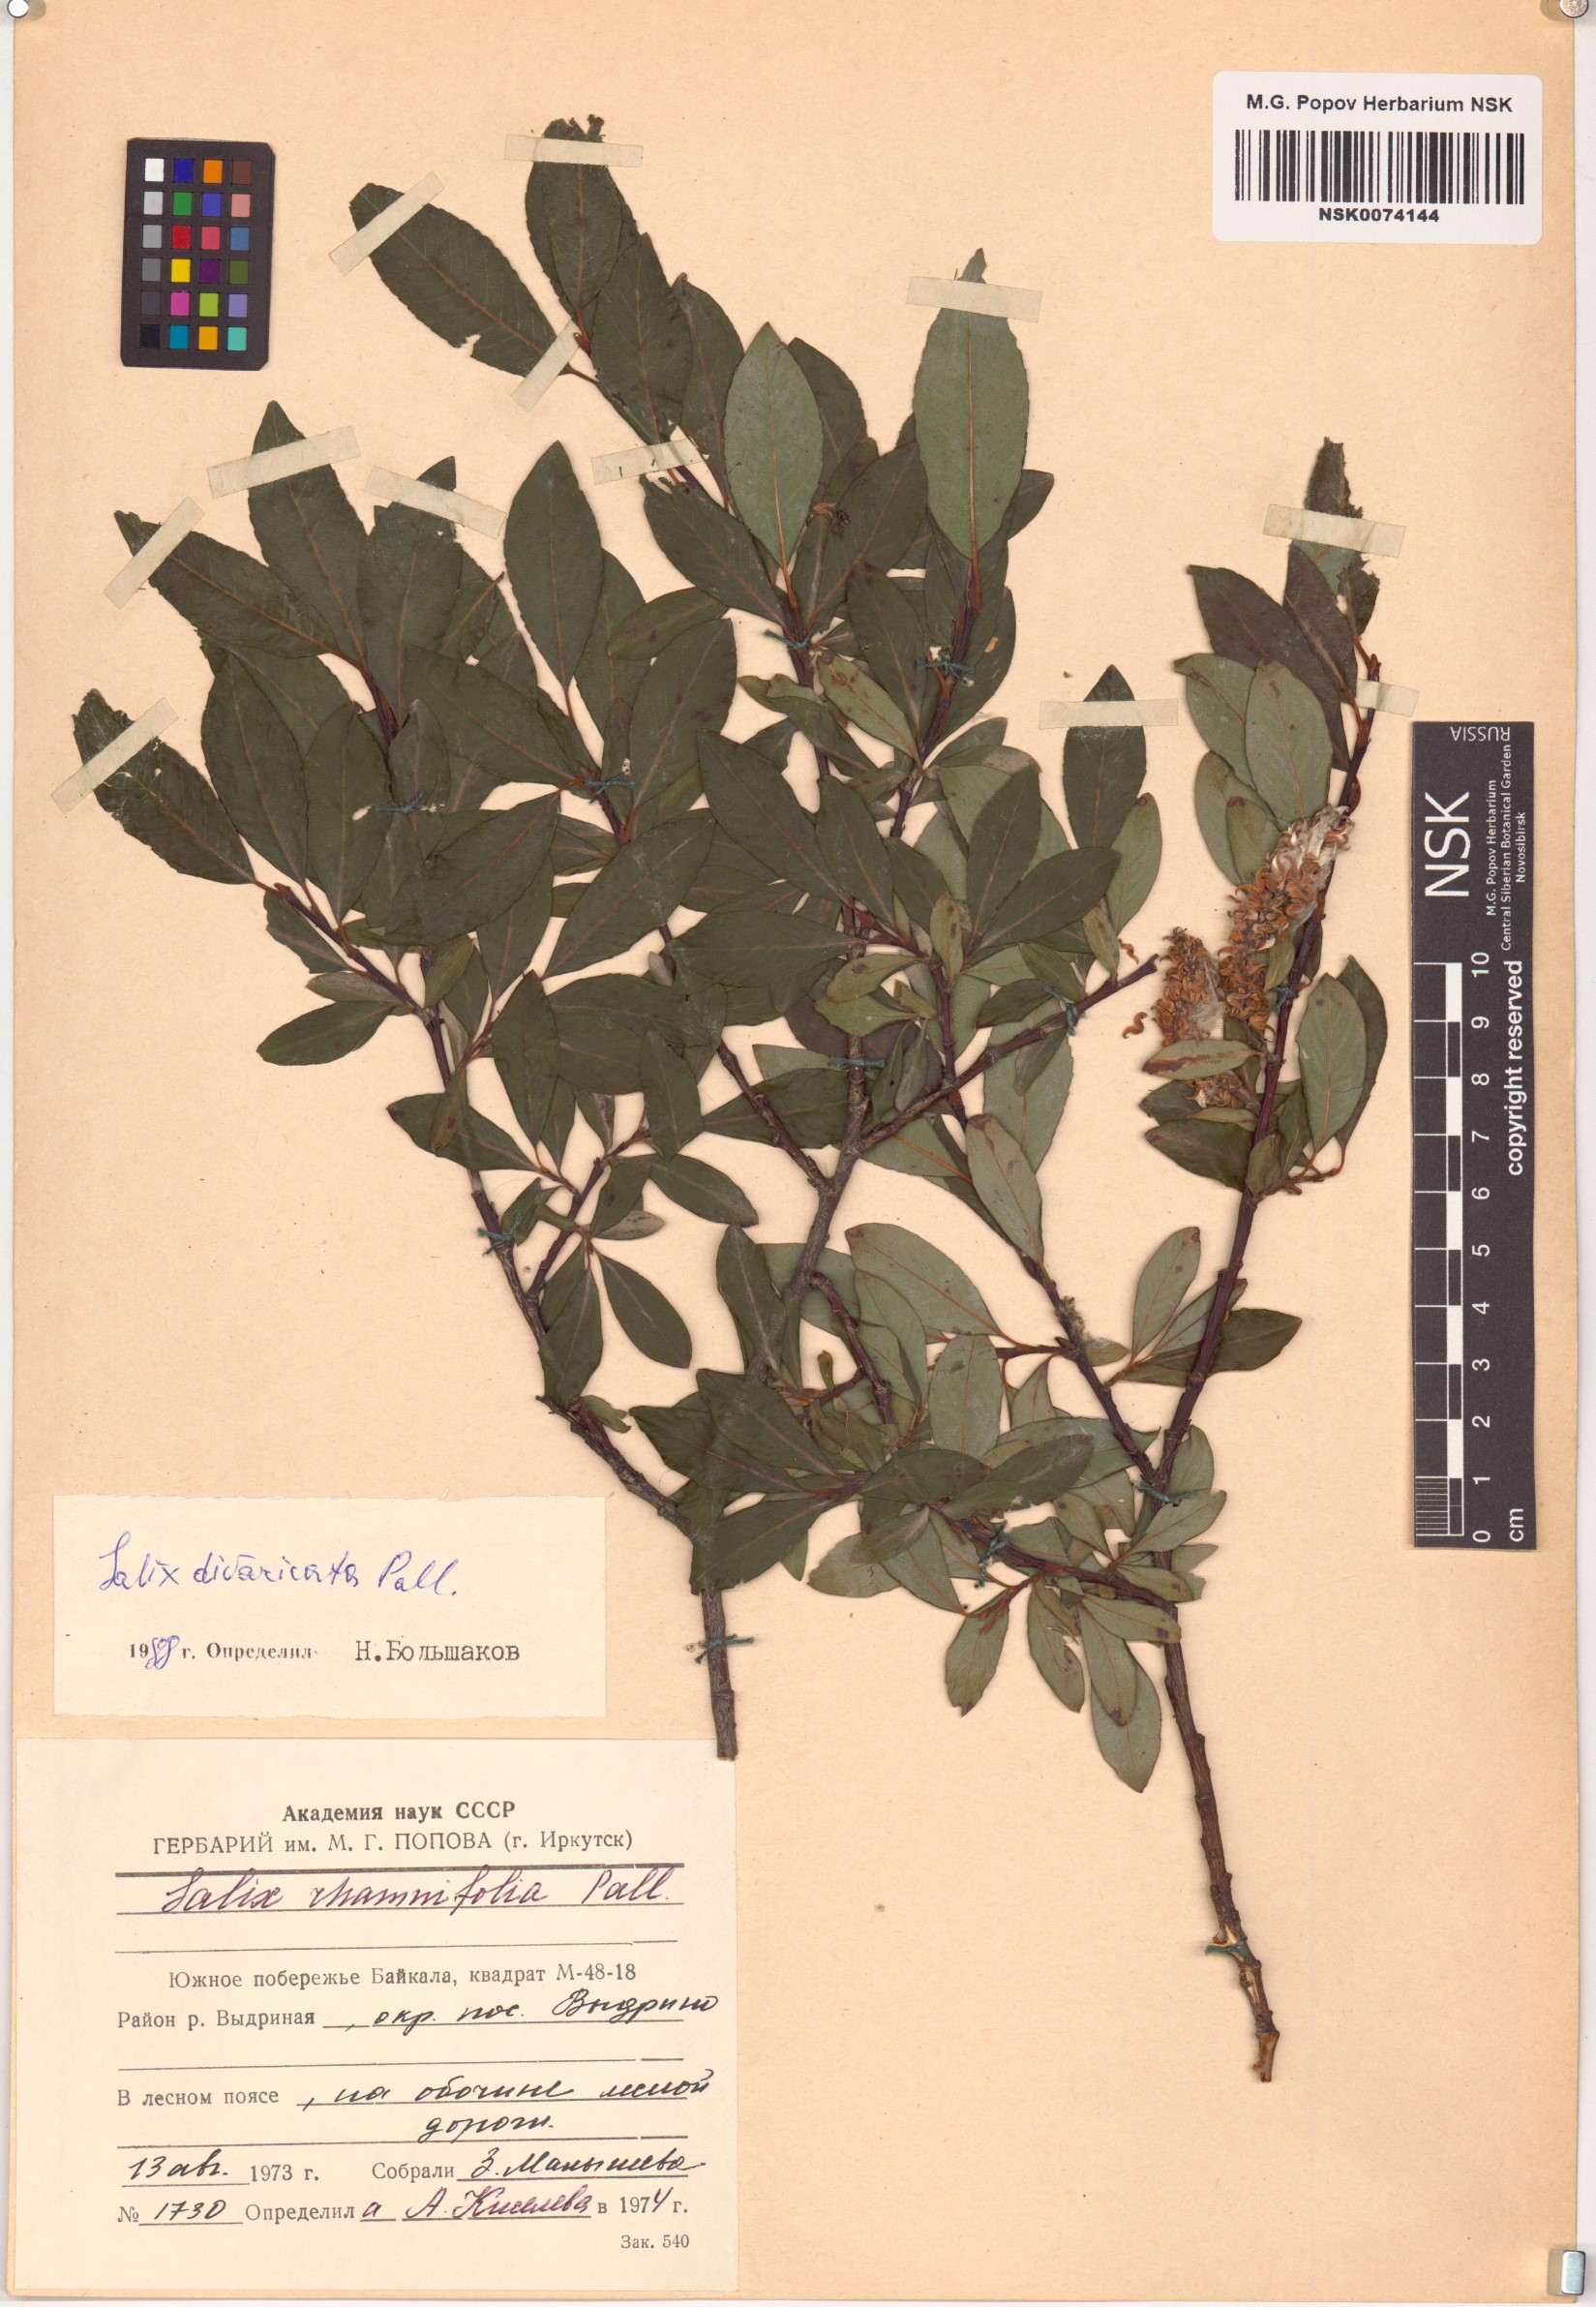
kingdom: Plantae
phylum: Tracheophyta
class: Magnoliopsida
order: Malpighiales
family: Salicaceae
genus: Salix
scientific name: Salix divaricata
